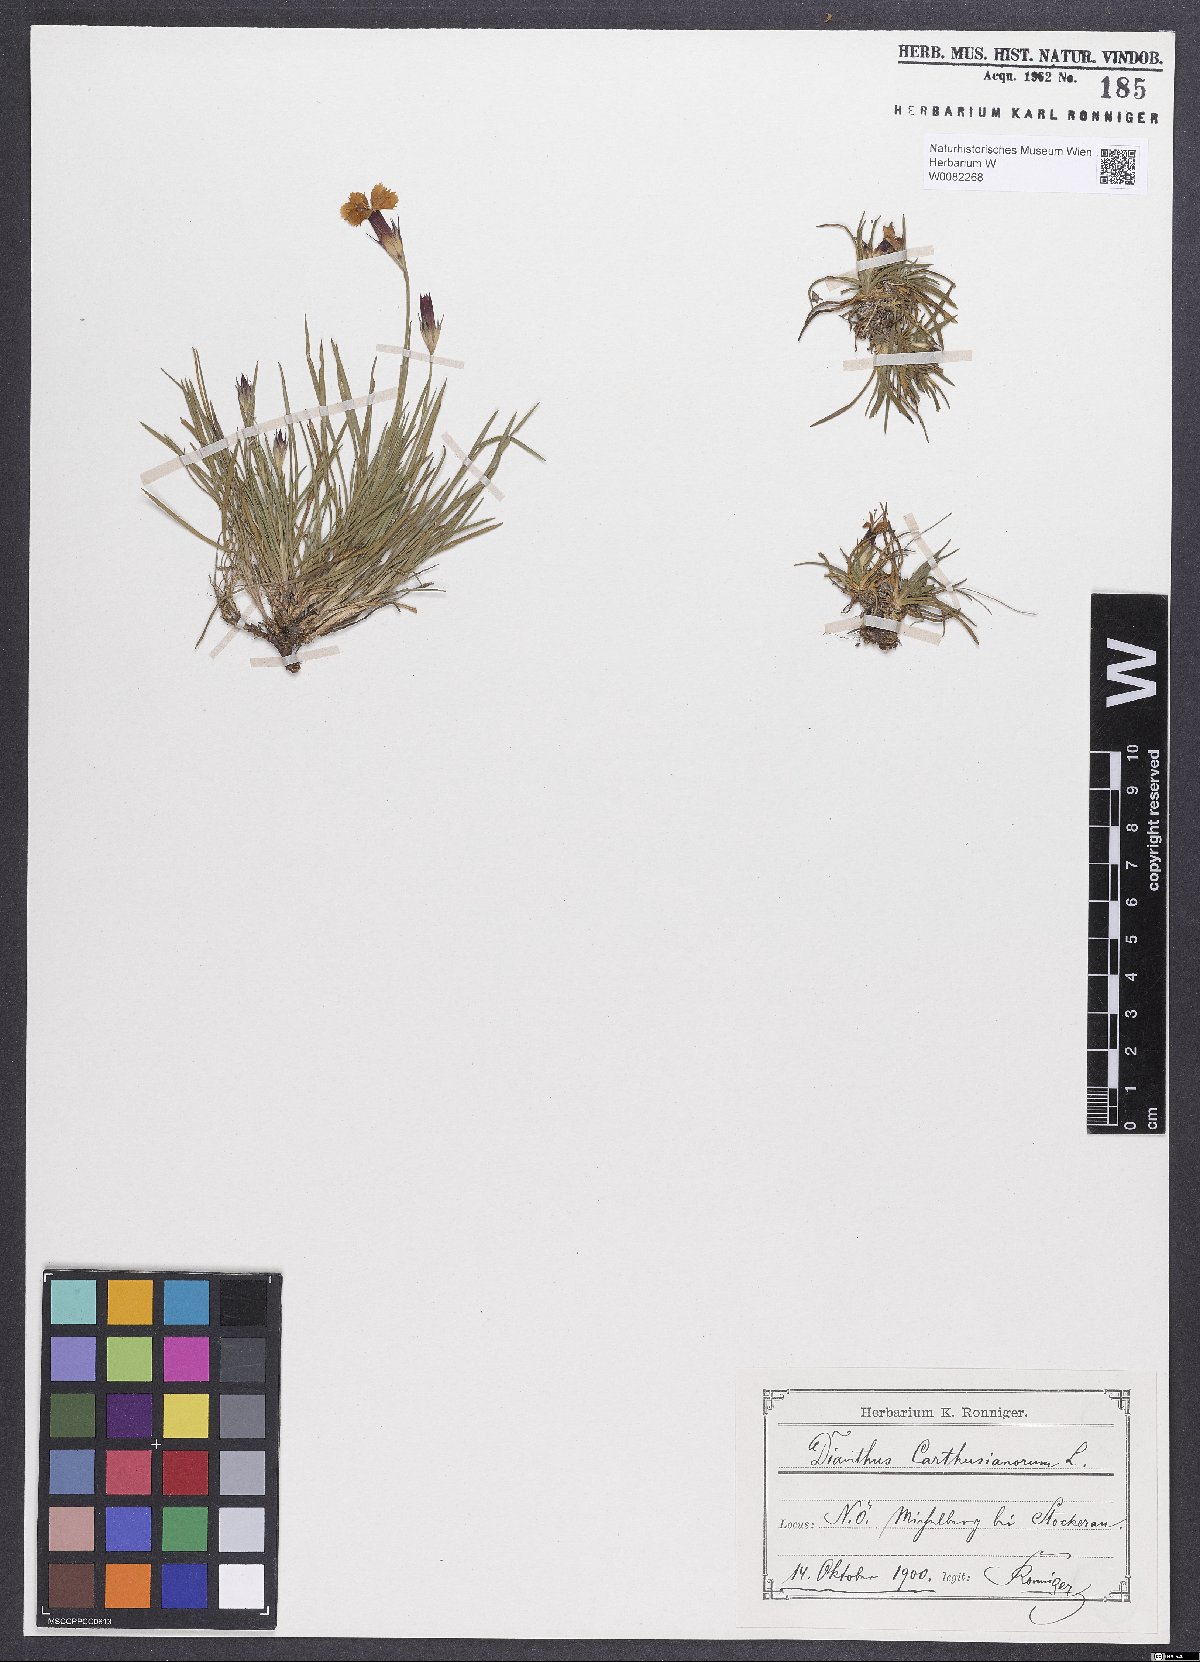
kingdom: Plantae
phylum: Tracheophyta
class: Magnoliopsida
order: Caryophyllales
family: Caryophyllaceae
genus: Dianthus
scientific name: Dianthus carthusianorum
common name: Carthusian pink
